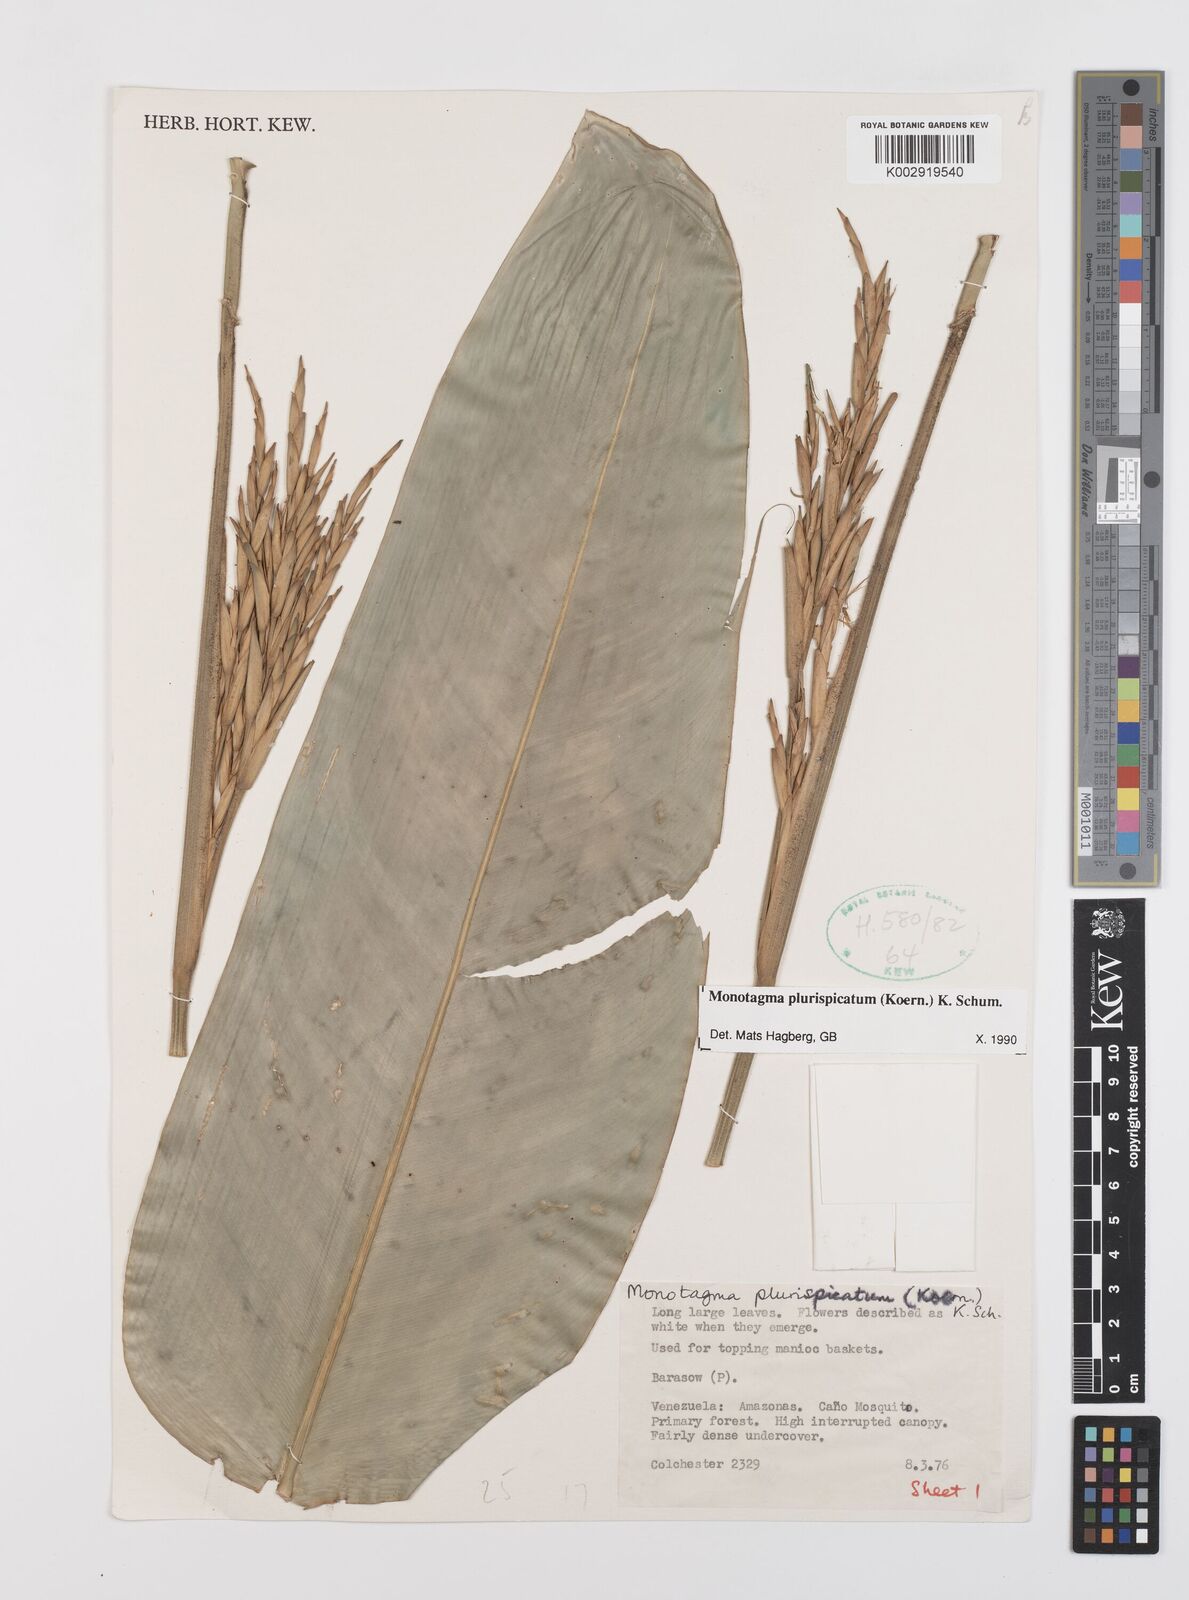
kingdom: Plantae
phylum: Tracheophyta
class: Liliopsida
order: Zingiberales
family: Marantaceae
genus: Monotagma
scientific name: Monotagma plurispicatum
